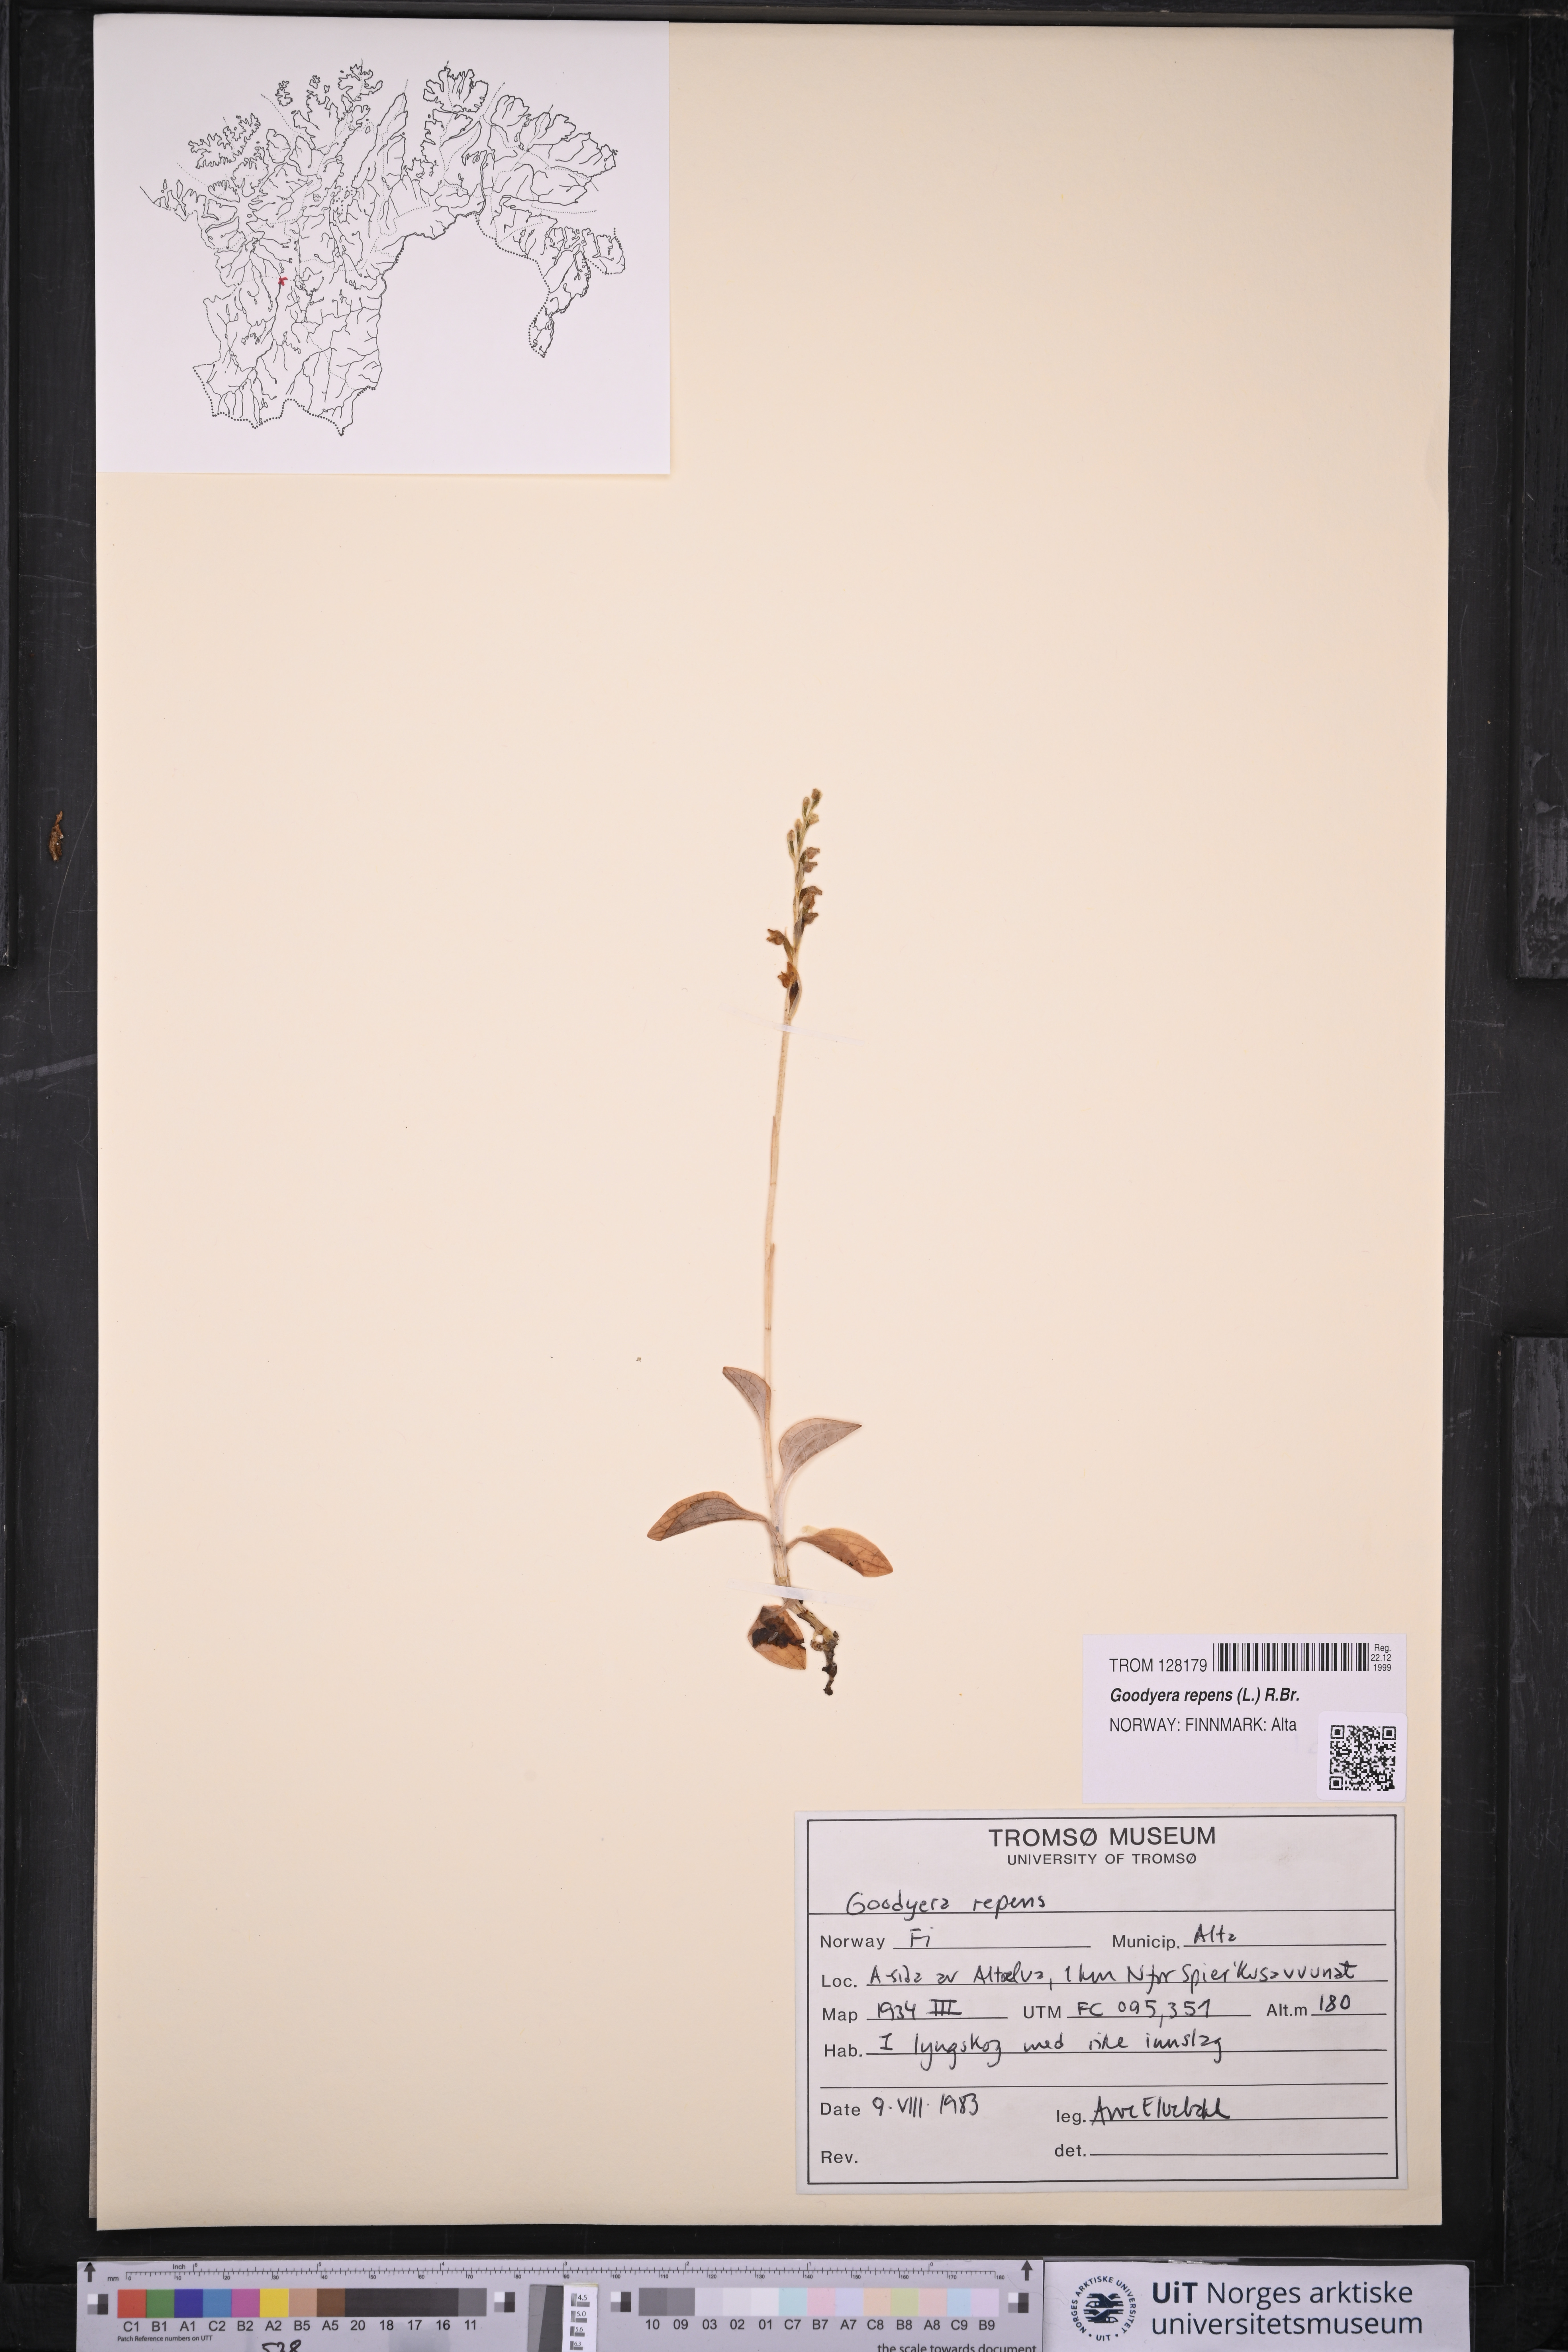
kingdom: Plantae
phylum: Tracheophyta
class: Liliopsida
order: Asparagales
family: Orchidaceae
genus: Goodyera
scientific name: Goodyera repens
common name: Creeping lady's-tresses
